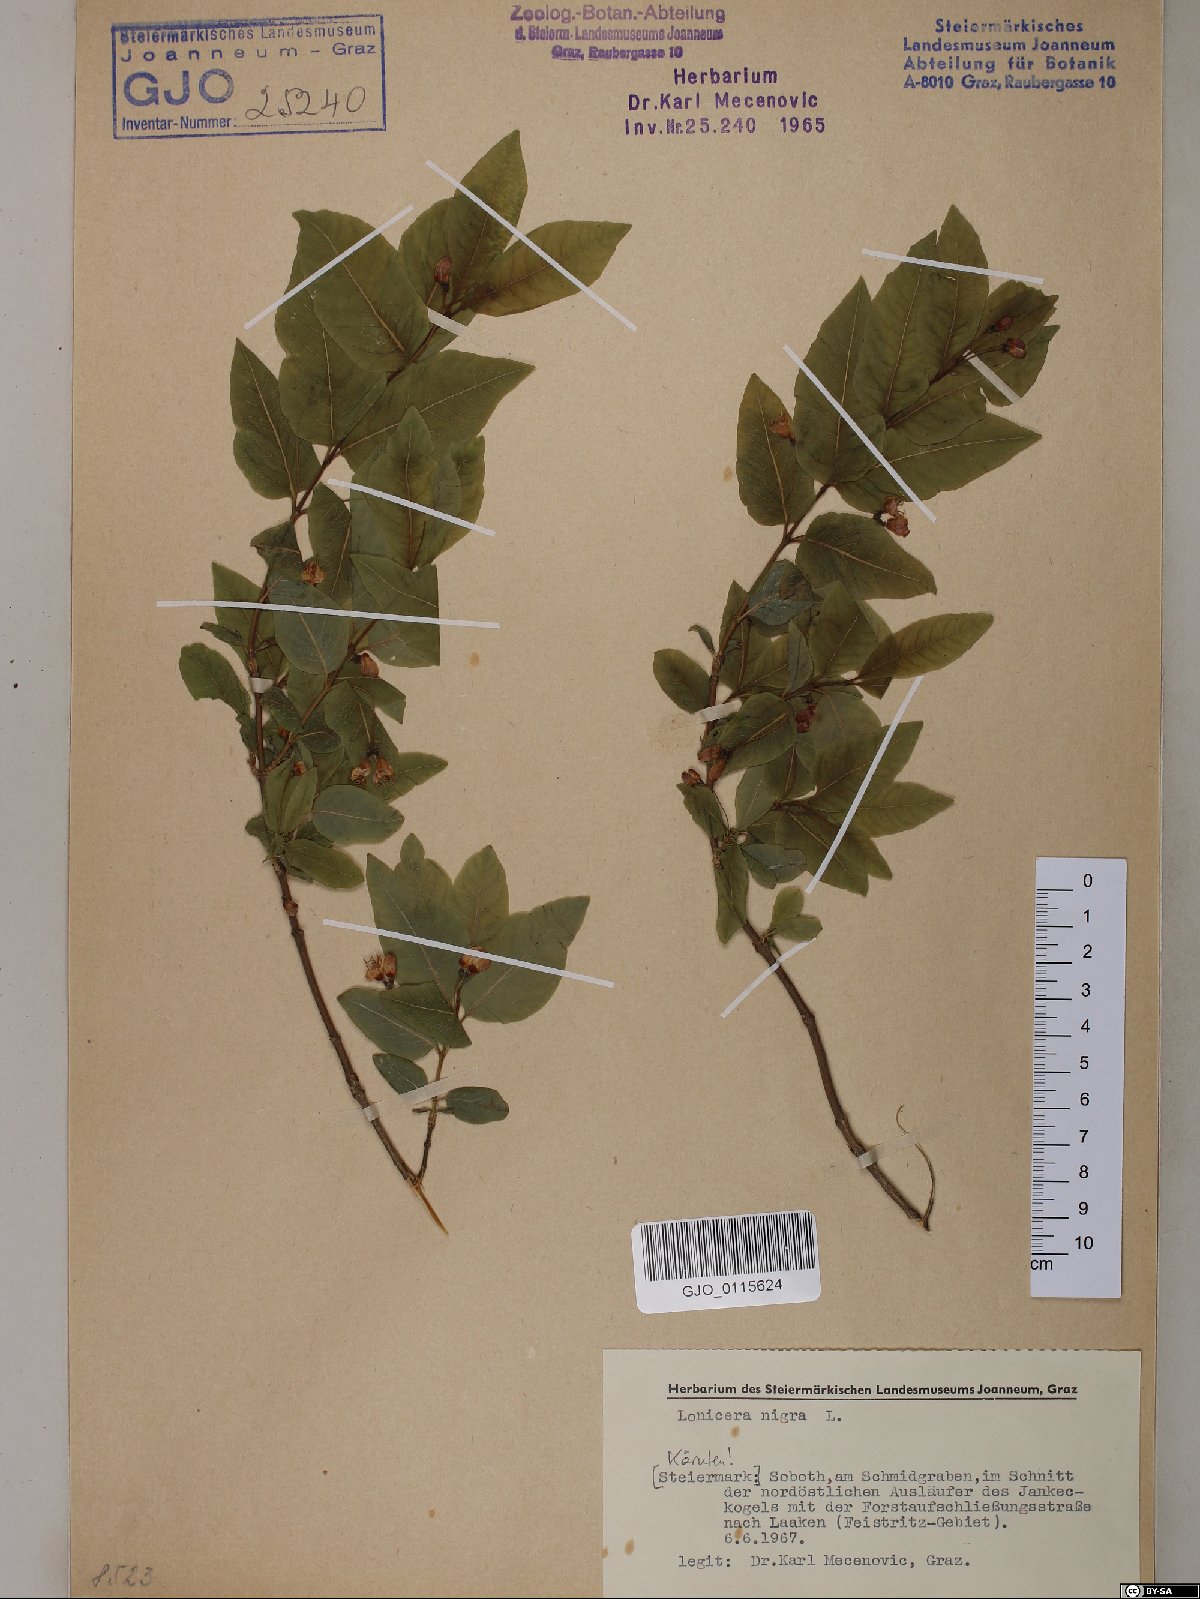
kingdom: Plantae
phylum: Tracheophyta
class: Magnoliopsida
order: Dipsacales
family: Caprifoliaceae
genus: Lonicera
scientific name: Lonicera nigra
